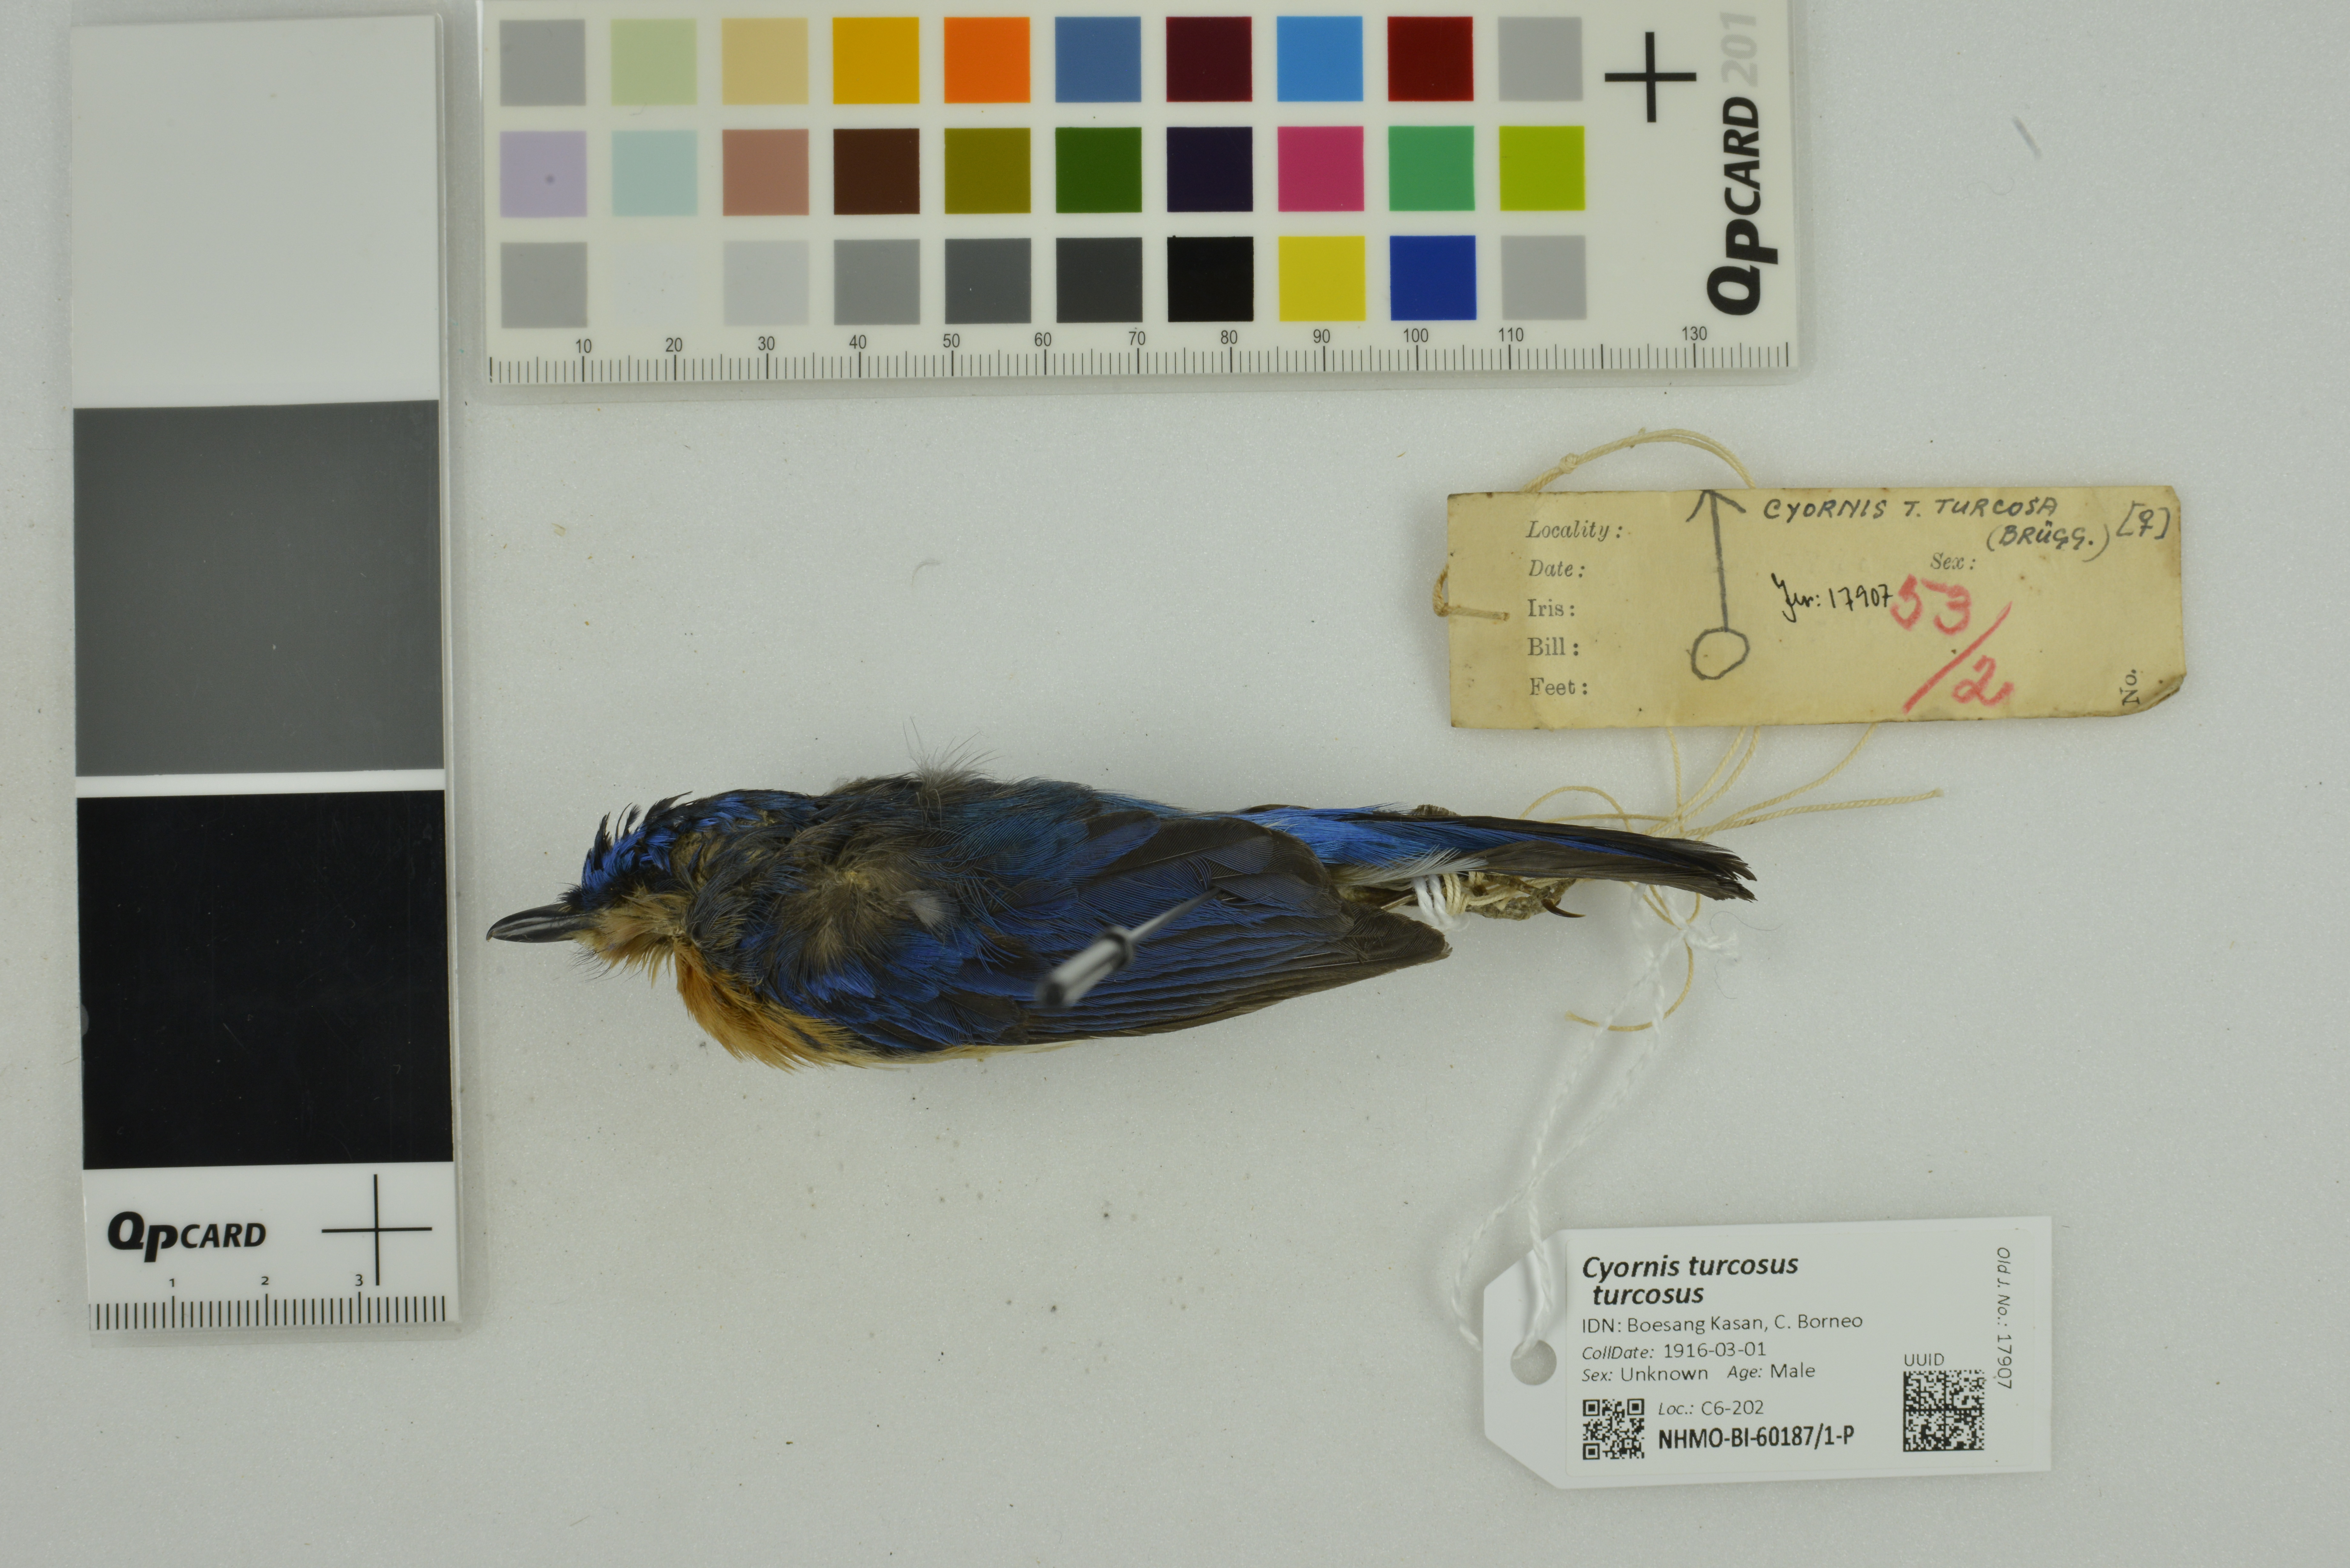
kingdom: Animalia
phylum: Chordata
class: Aves
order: Passeriformes
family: Muscicapidae
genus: Cyornis
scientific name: Cyornis turcosus
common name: Malaysian blue flycatcher
